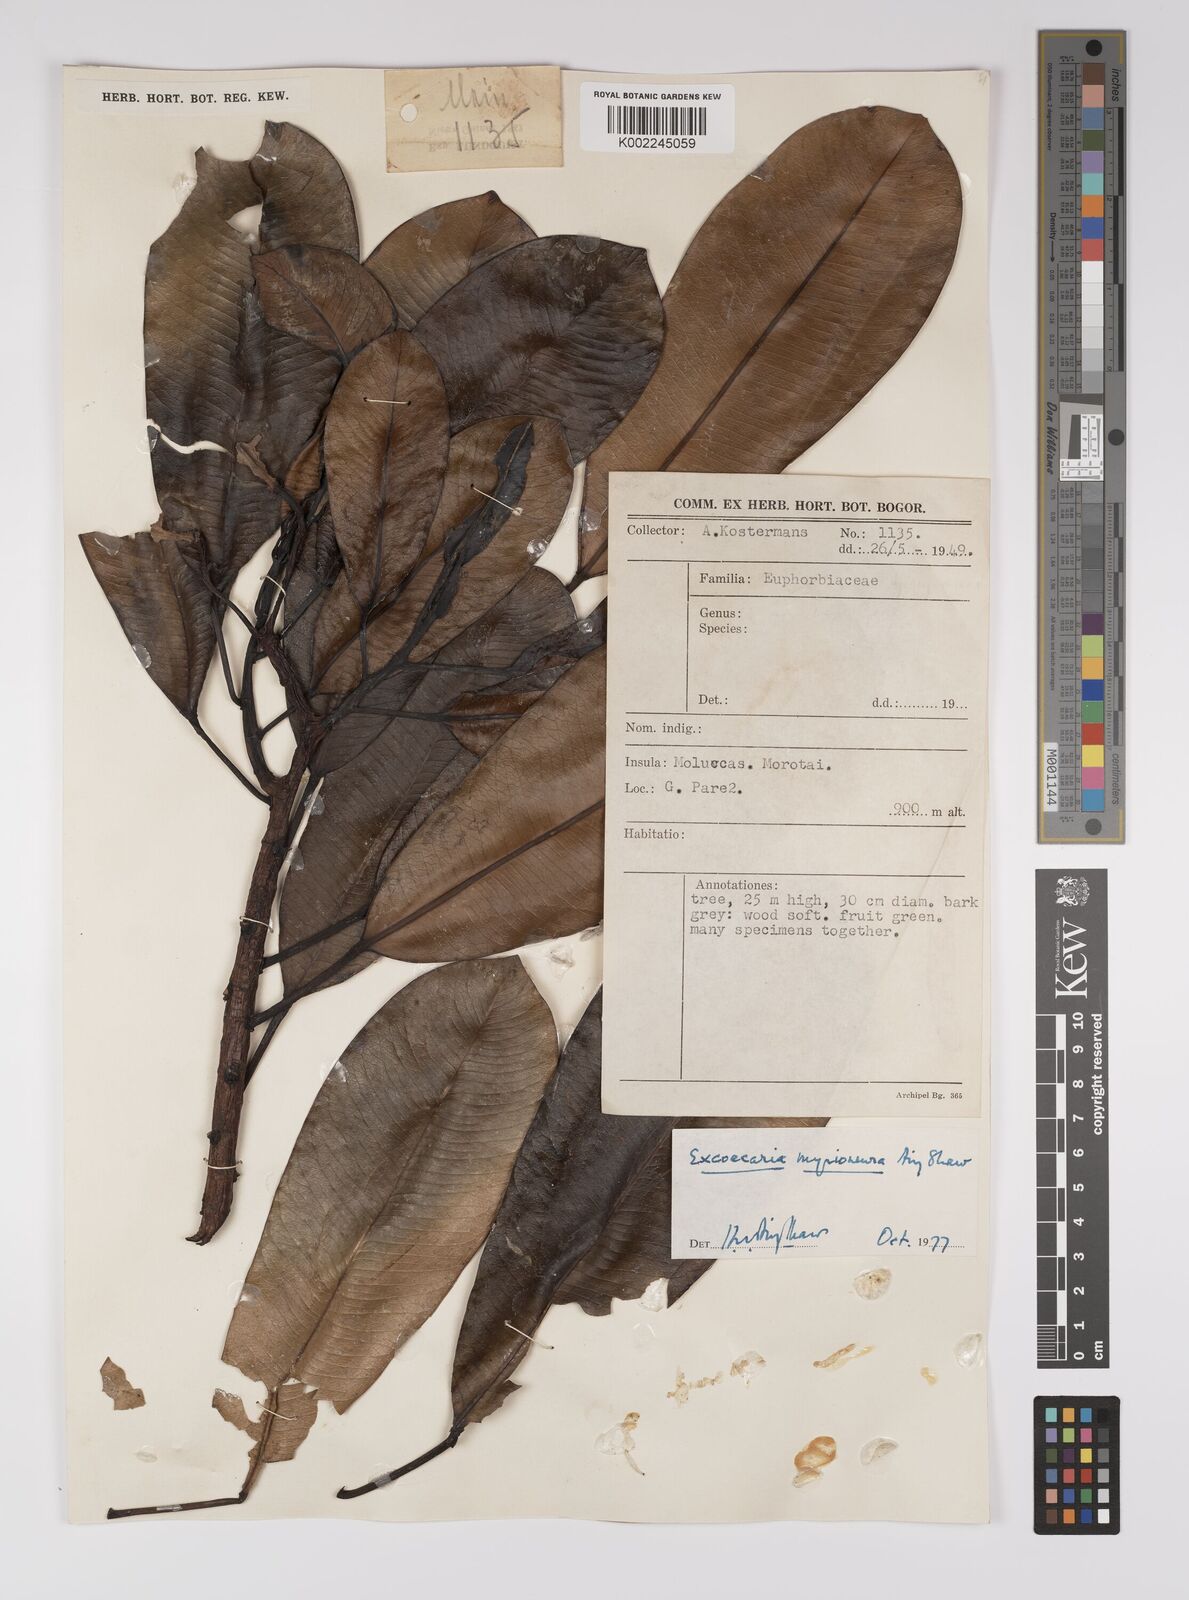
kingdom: Plantae
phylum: Tracheophyta
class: Magnoliopsida
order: Malpighiales
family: Euphorbiaceae
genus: Excoecaria
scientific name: Excoecaria myrioneura
